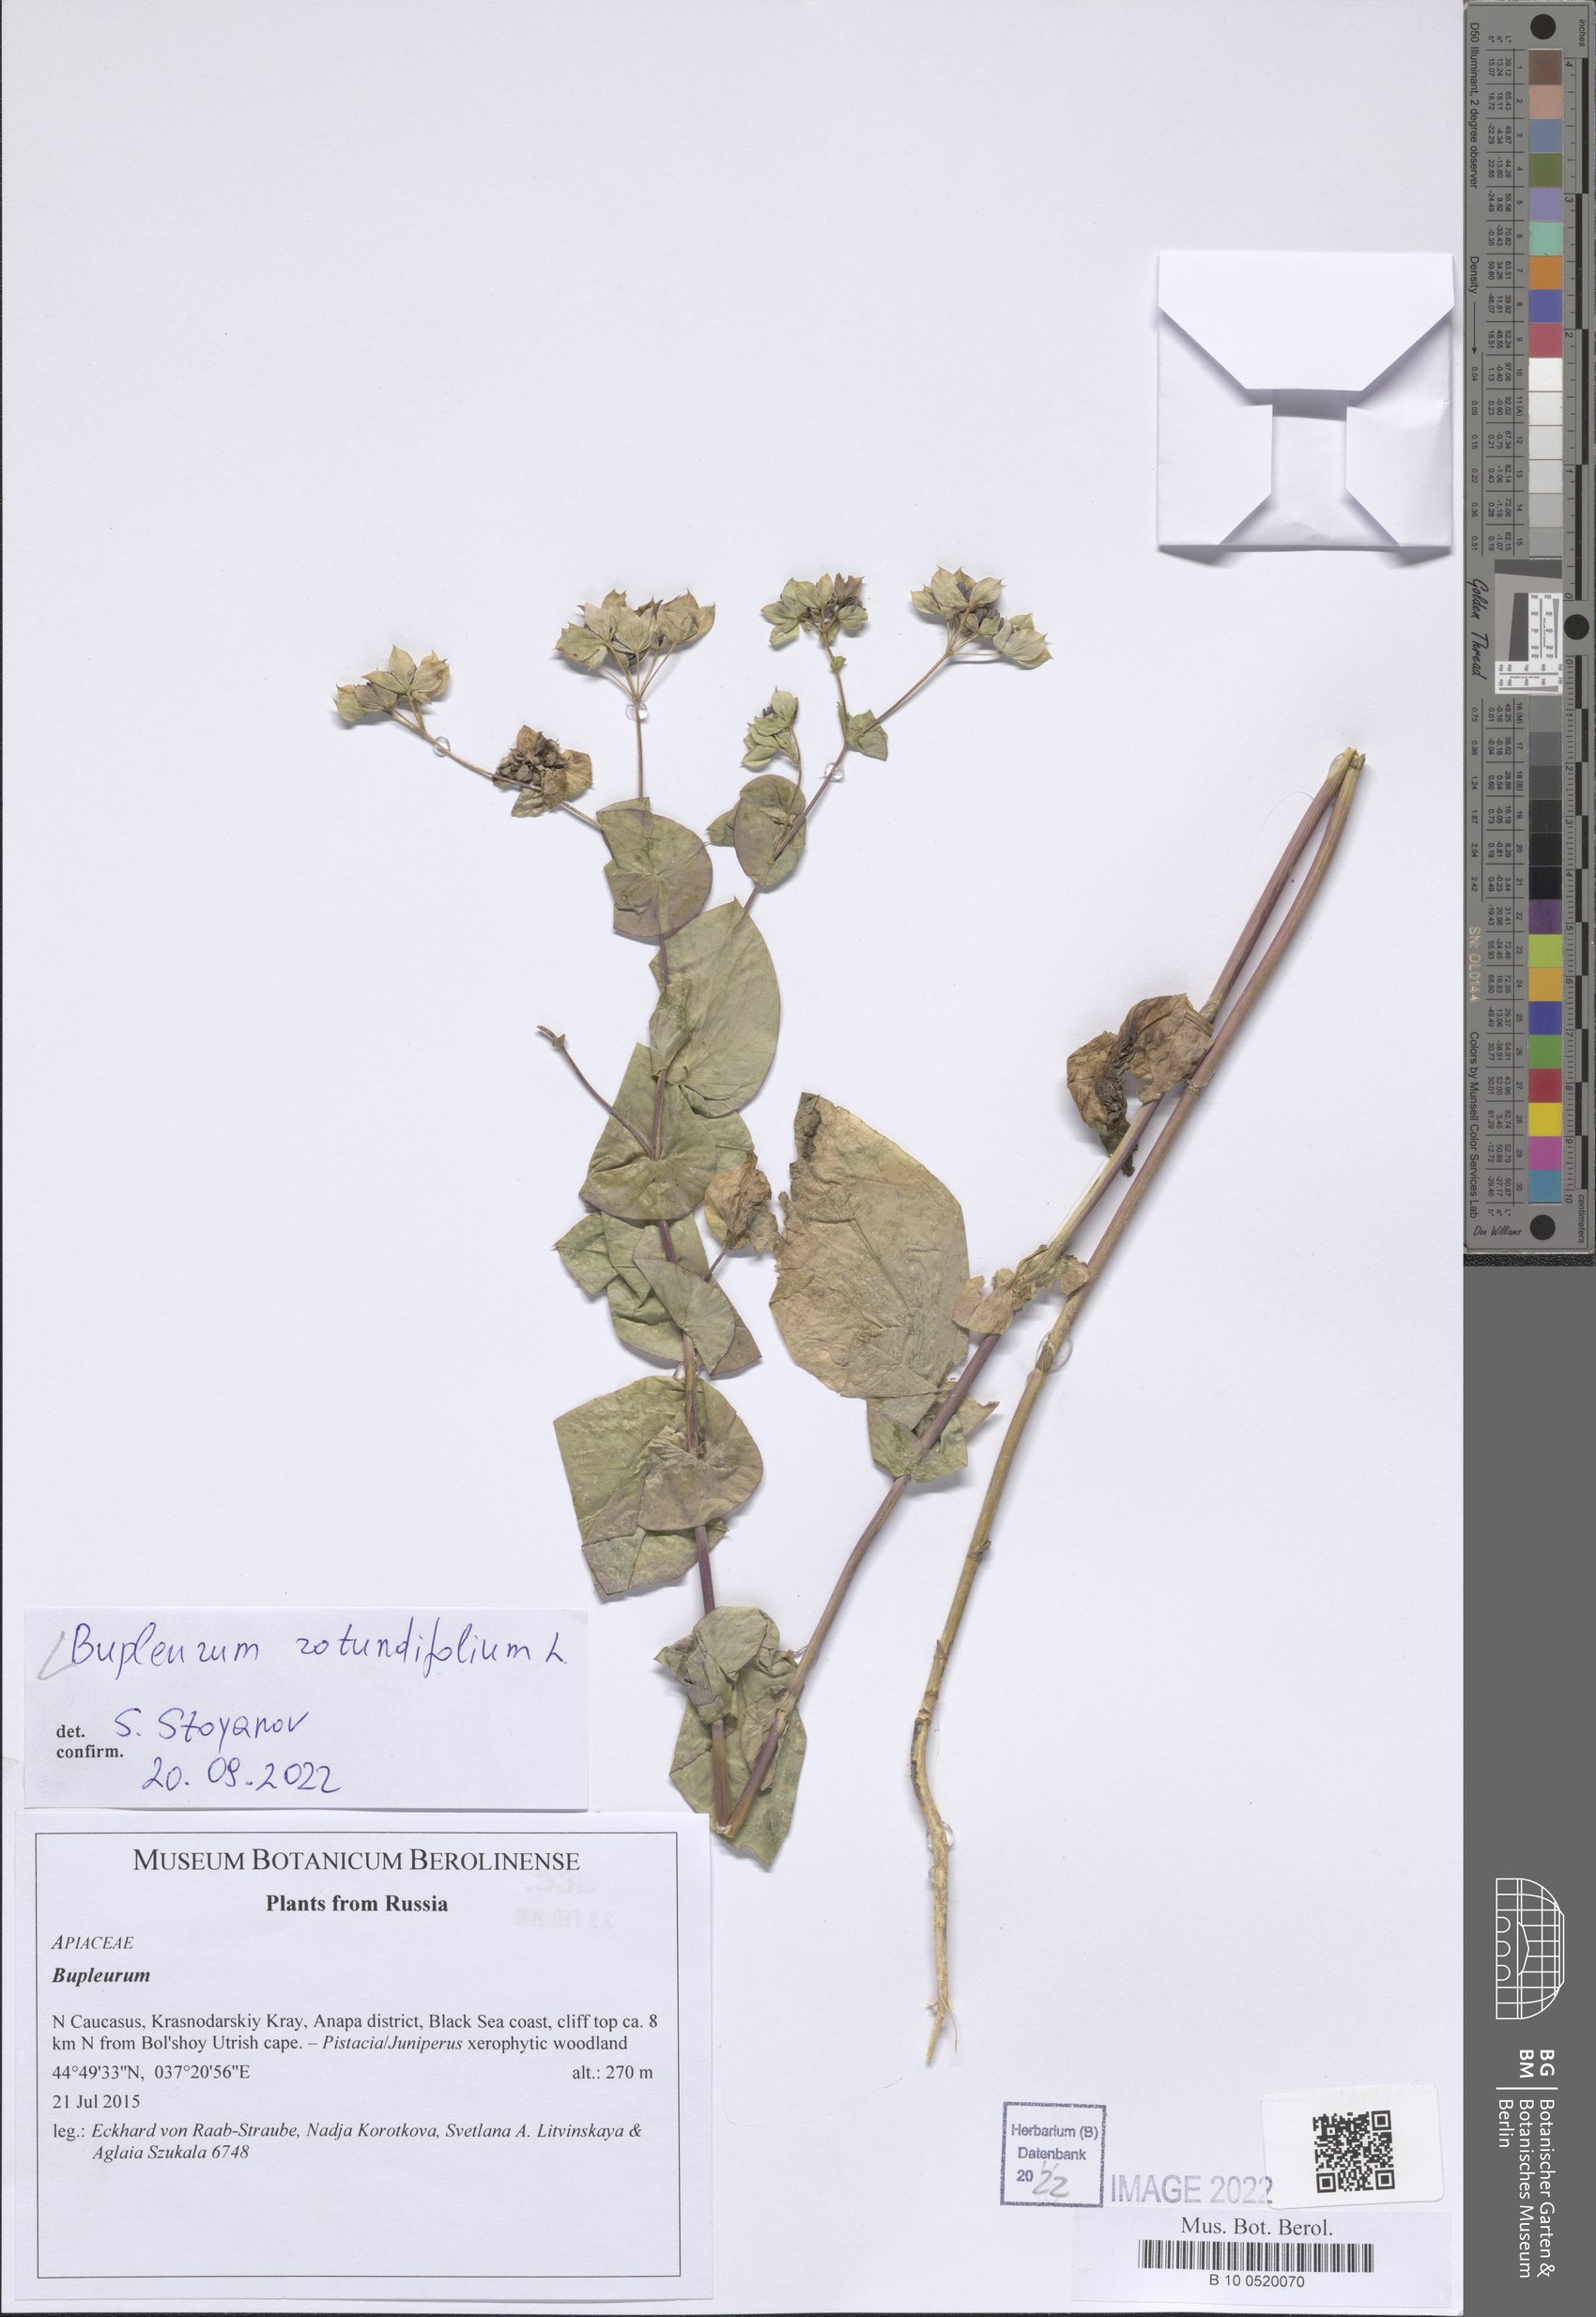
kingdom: Plantae
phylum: Tracheophyta
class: Magnoliopsida
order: Apiales
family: Apiaceae
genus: Bupleurum
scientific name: Bupleurum rotundifolium
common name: Thorow-wax
